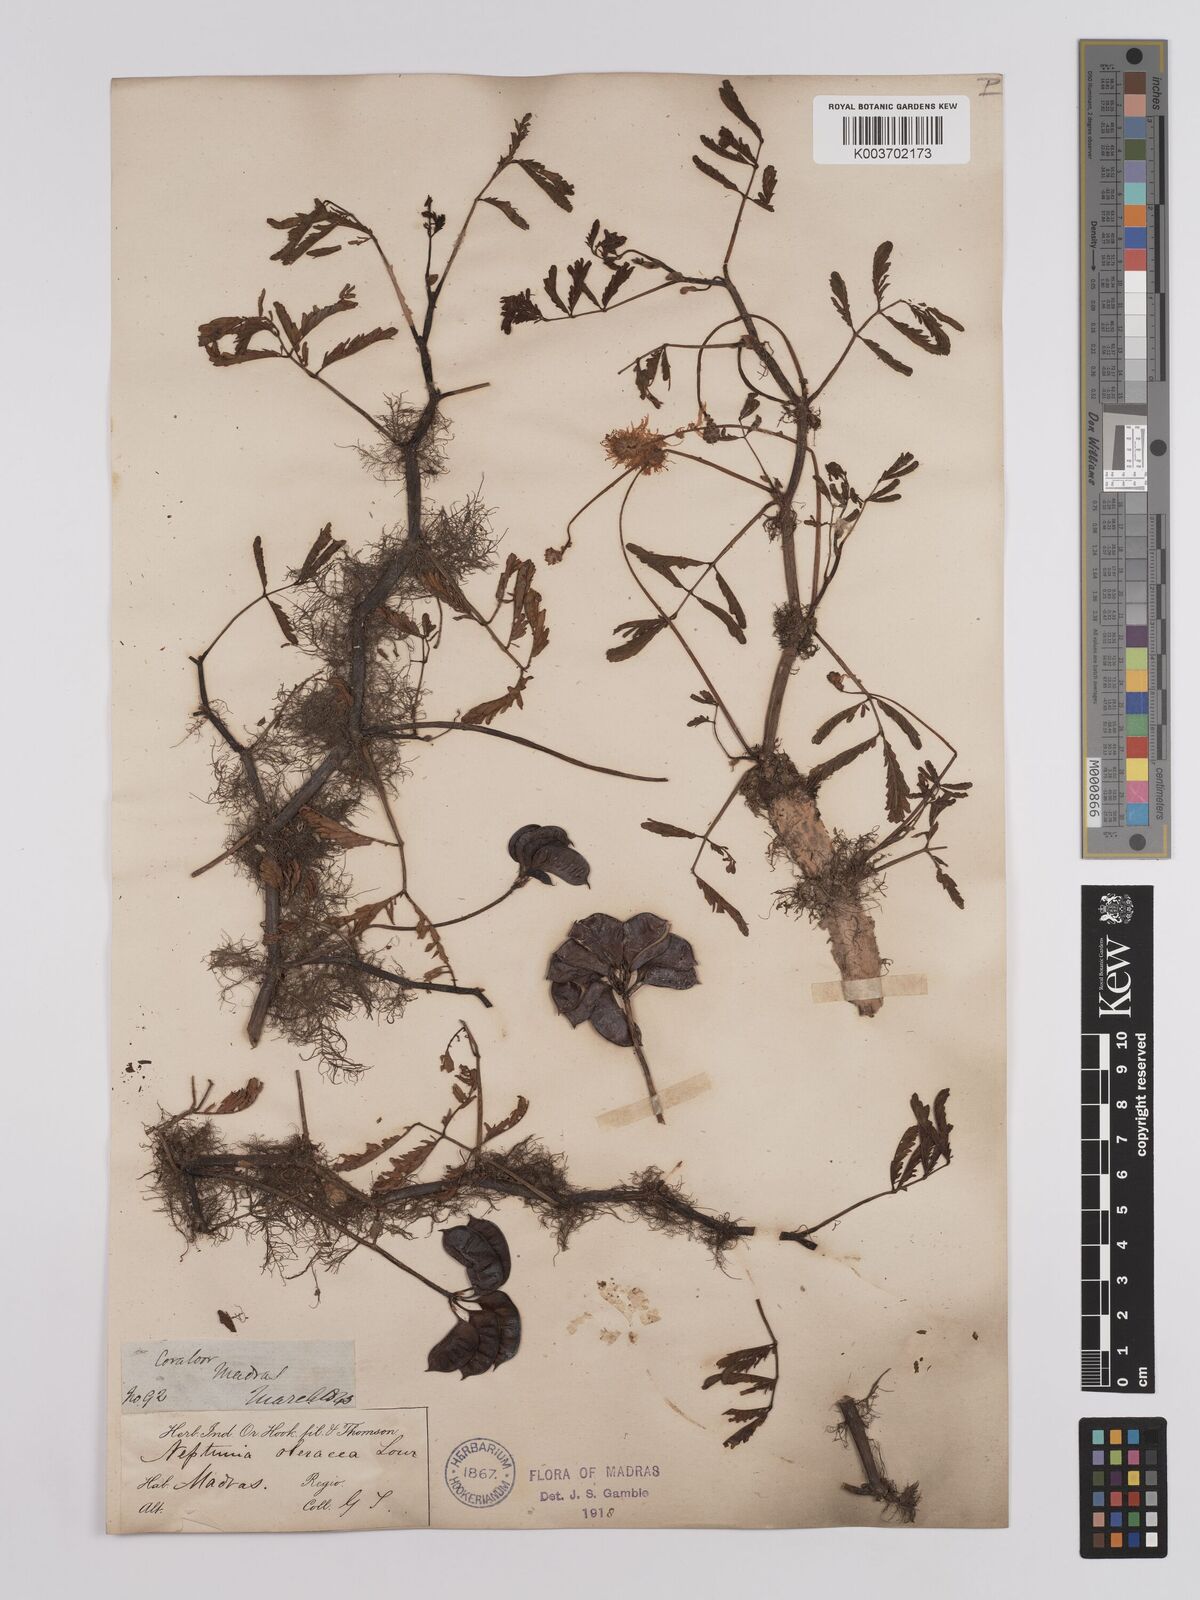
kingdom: Plantae
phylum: Tracheophyta
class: Magnoliopsida
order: Fabales
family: Fabaceae
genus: Neptunia
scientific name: Neptunia prostrata
